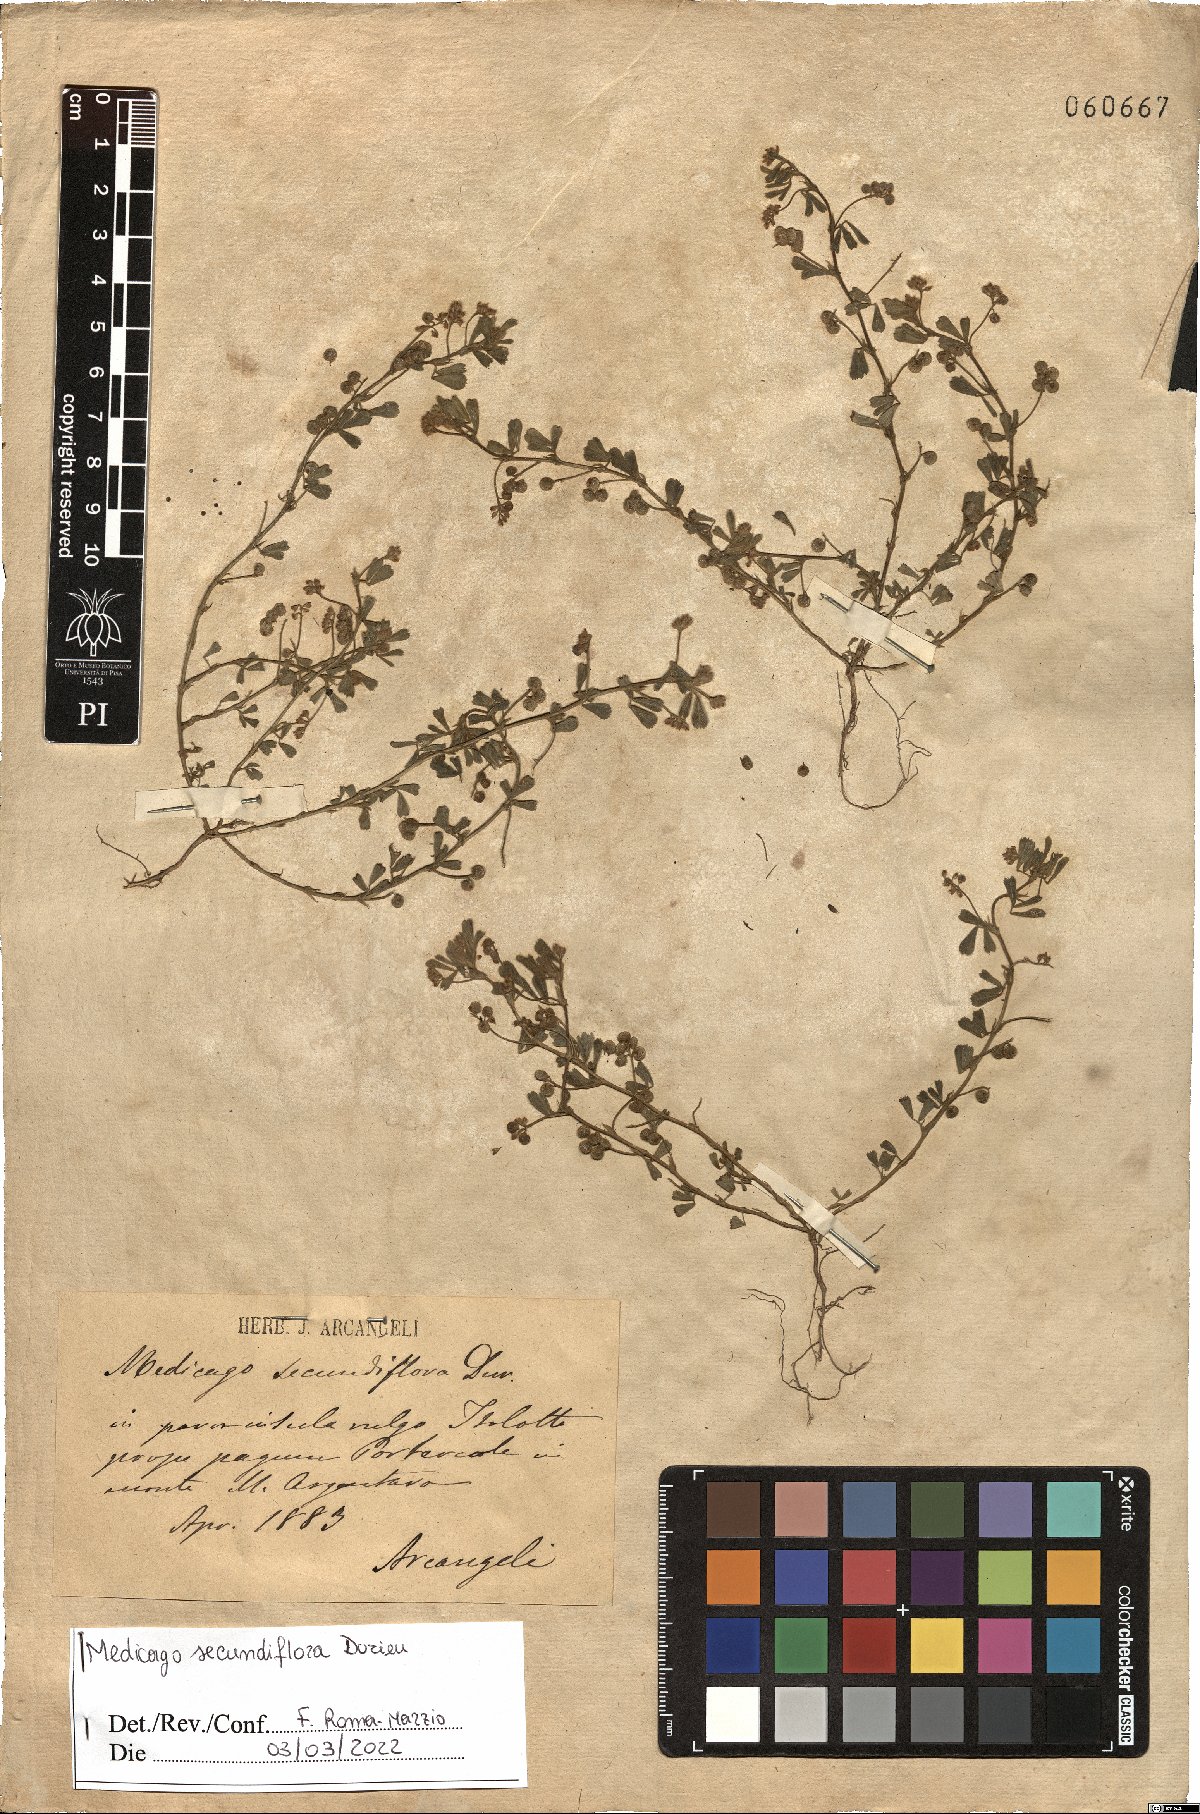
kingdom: Plantae
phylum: Tracheophyta
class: Magnoliopsida
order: Fabales
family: Fabaceae
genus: Medicago
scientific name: Medicago secundiflora
